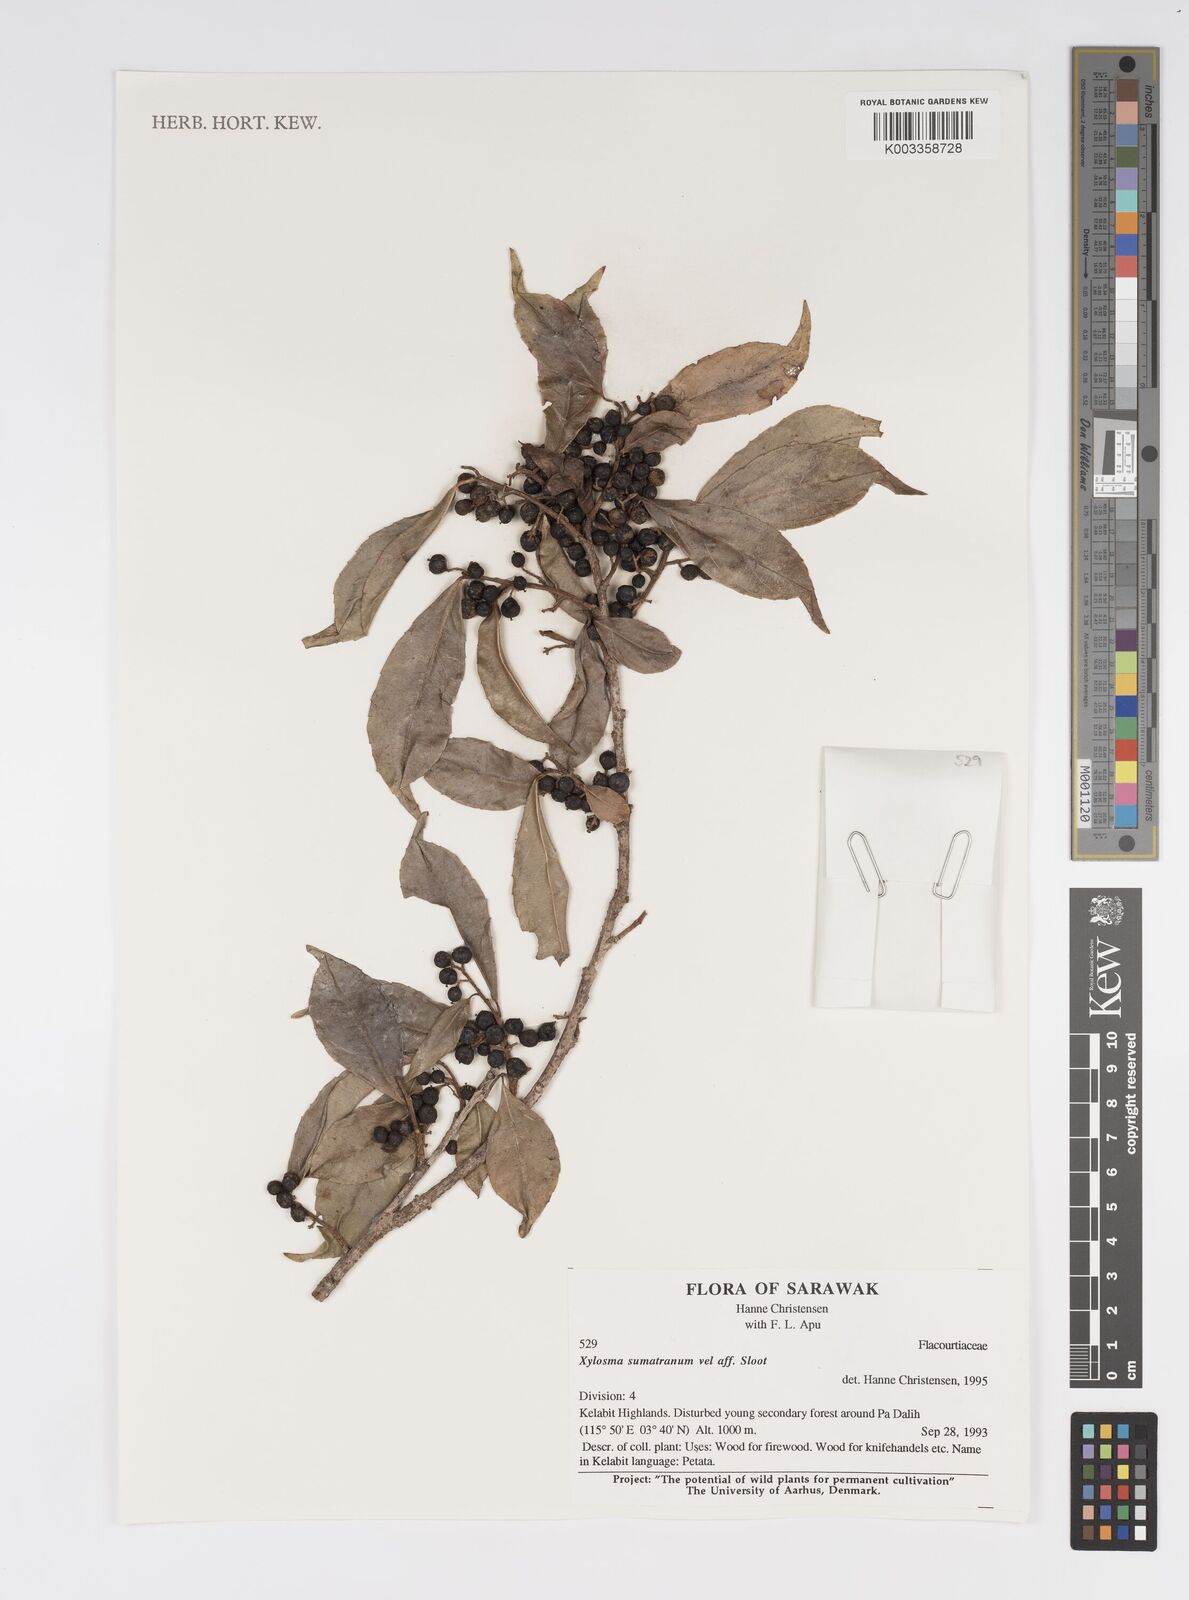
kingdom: Plantae
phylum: Tracheophyta
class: Magnoliopsida
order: Malpighiales
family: Salicaceae
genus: Xylosma
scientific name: Xylosma sumatrana
